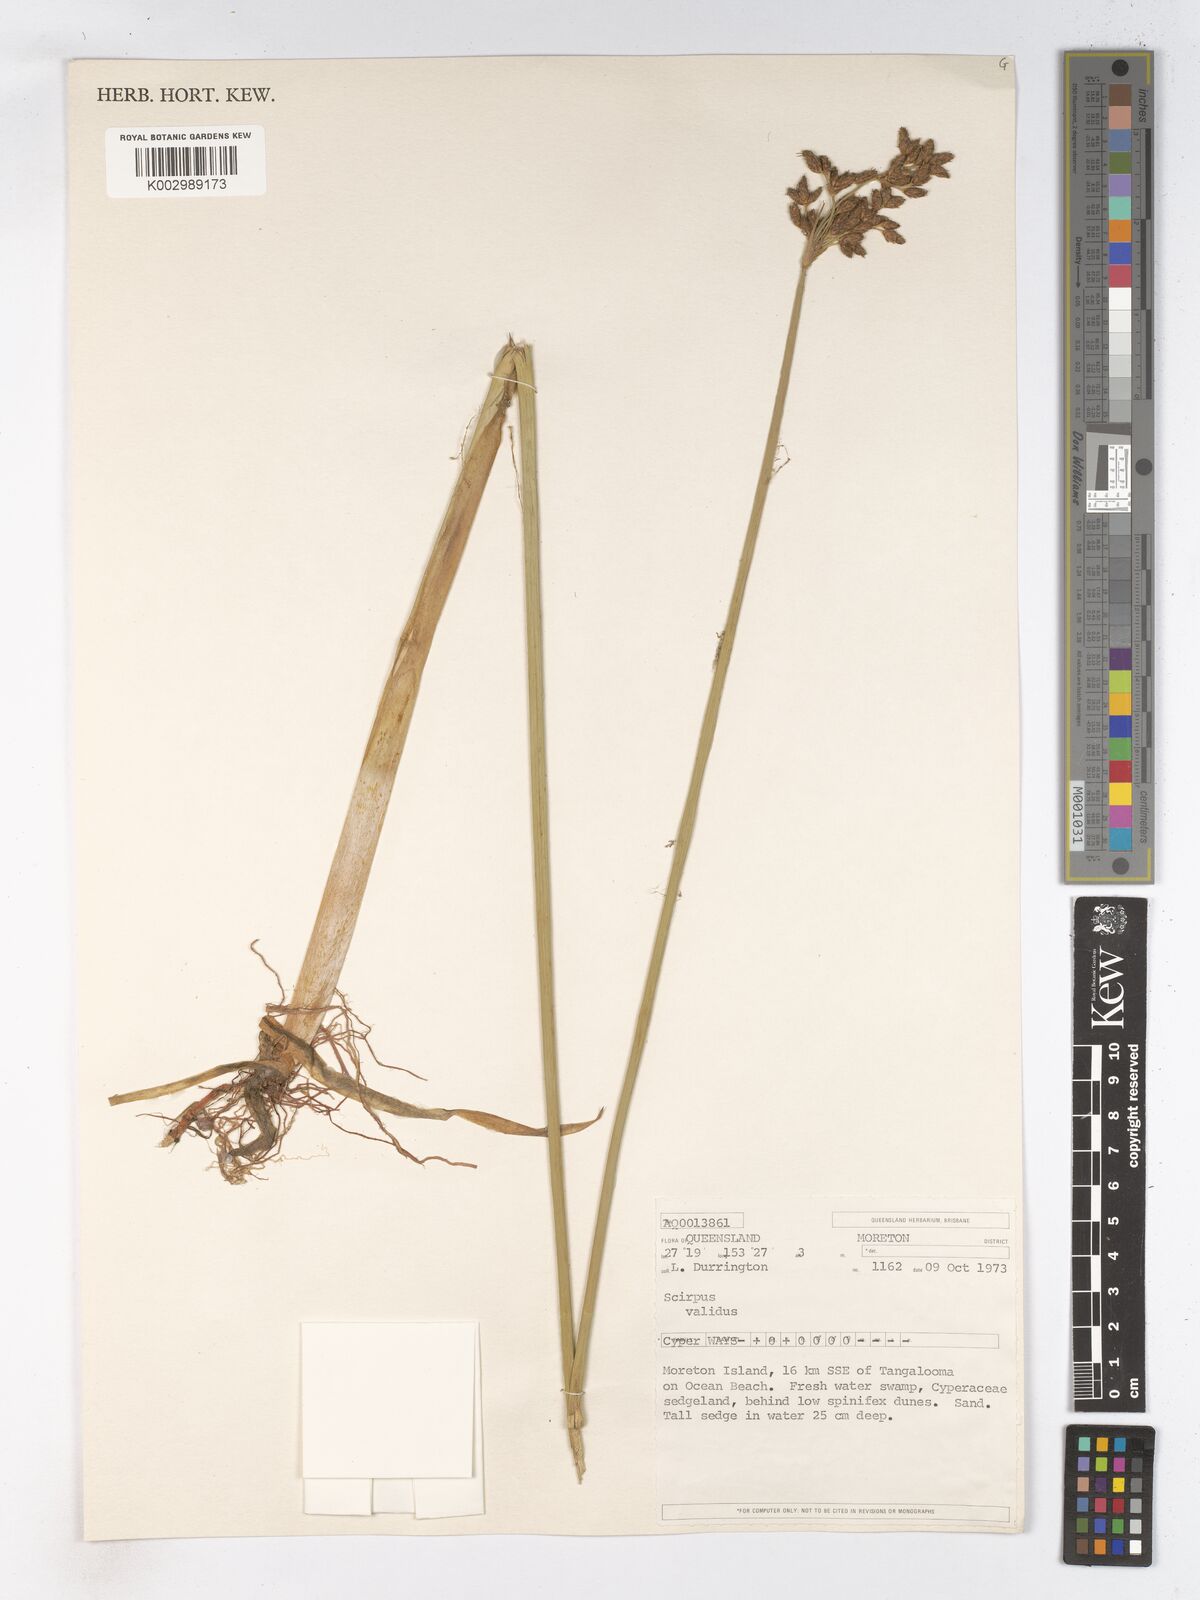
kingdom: Plantae
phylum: Tracheophyta
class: Liliopsida
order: Poales
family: Cyperaceae
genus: Schoenoplectus
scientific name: Schoenoplectus lacustris
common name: Common club-rush
